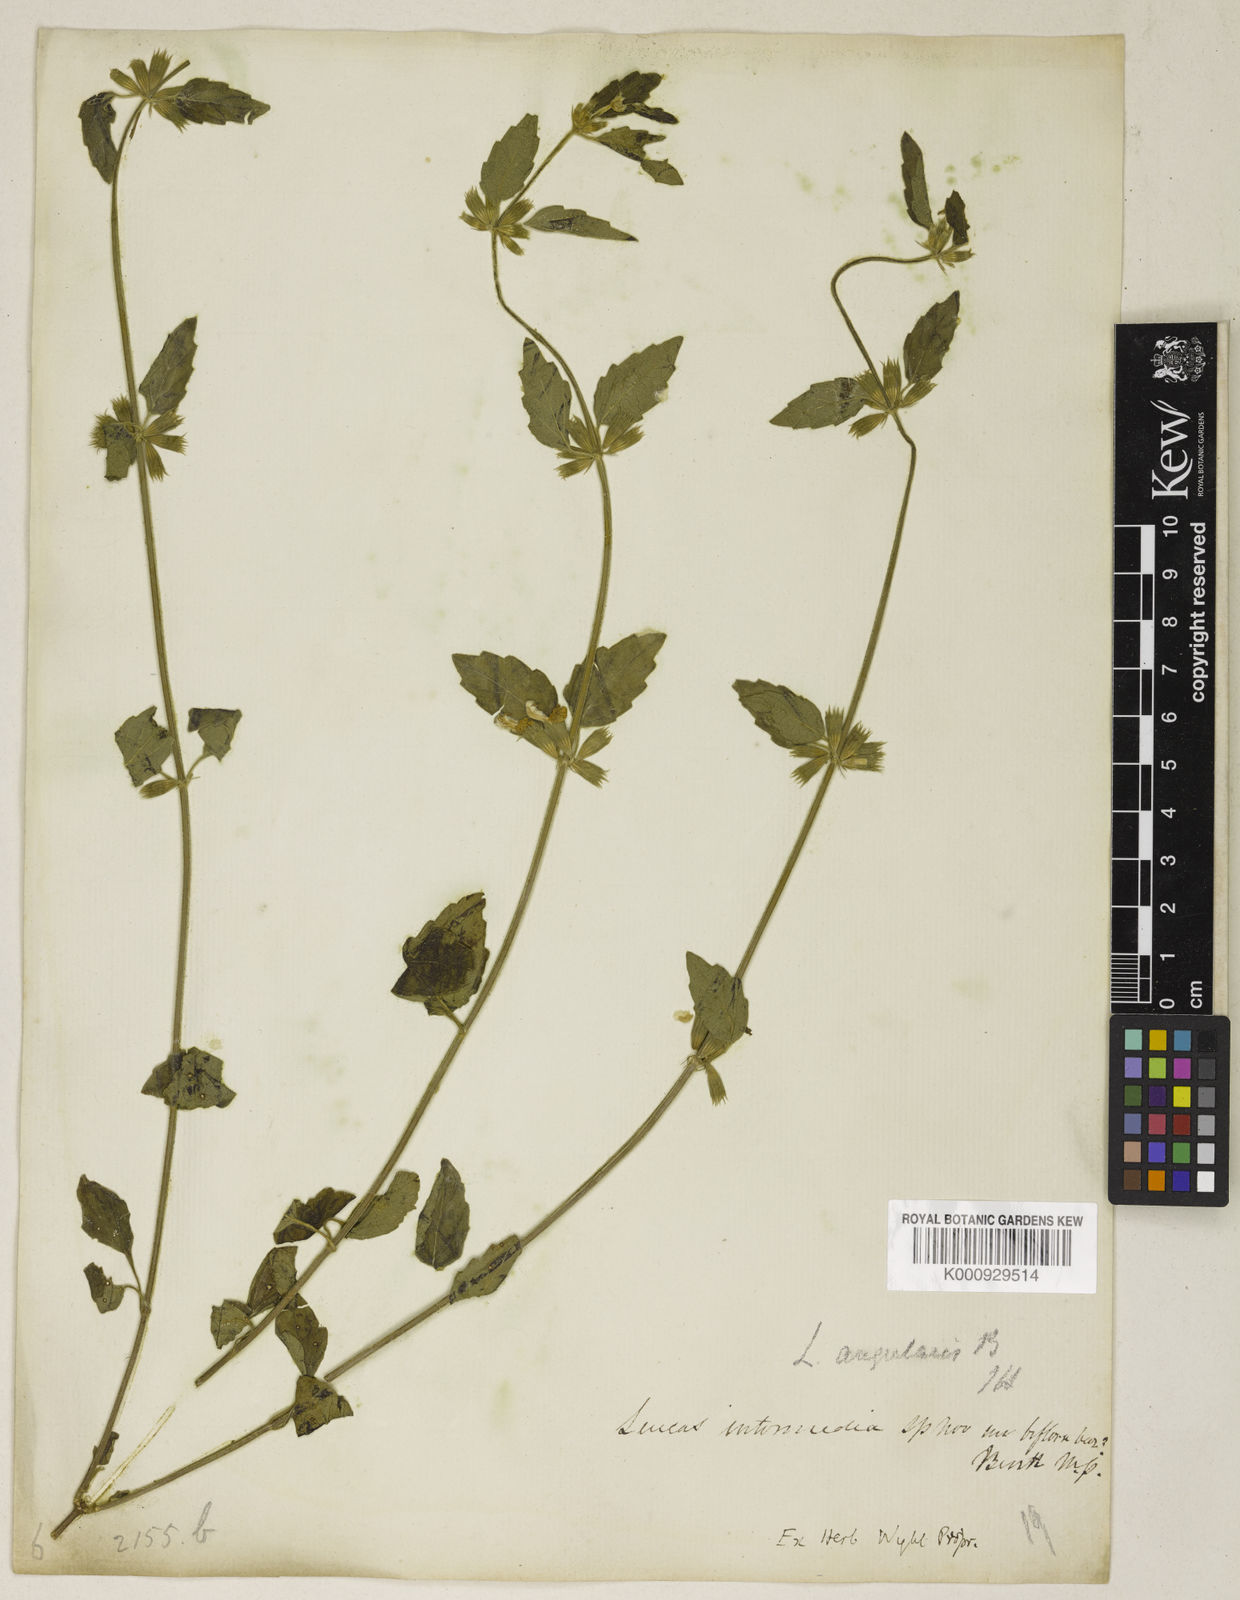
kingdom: Plantae
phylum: Tracheophyta
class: Magnoliopsida
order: Lamiales
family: Lamiaceae
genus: Leucas
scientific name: Leucas angularis
